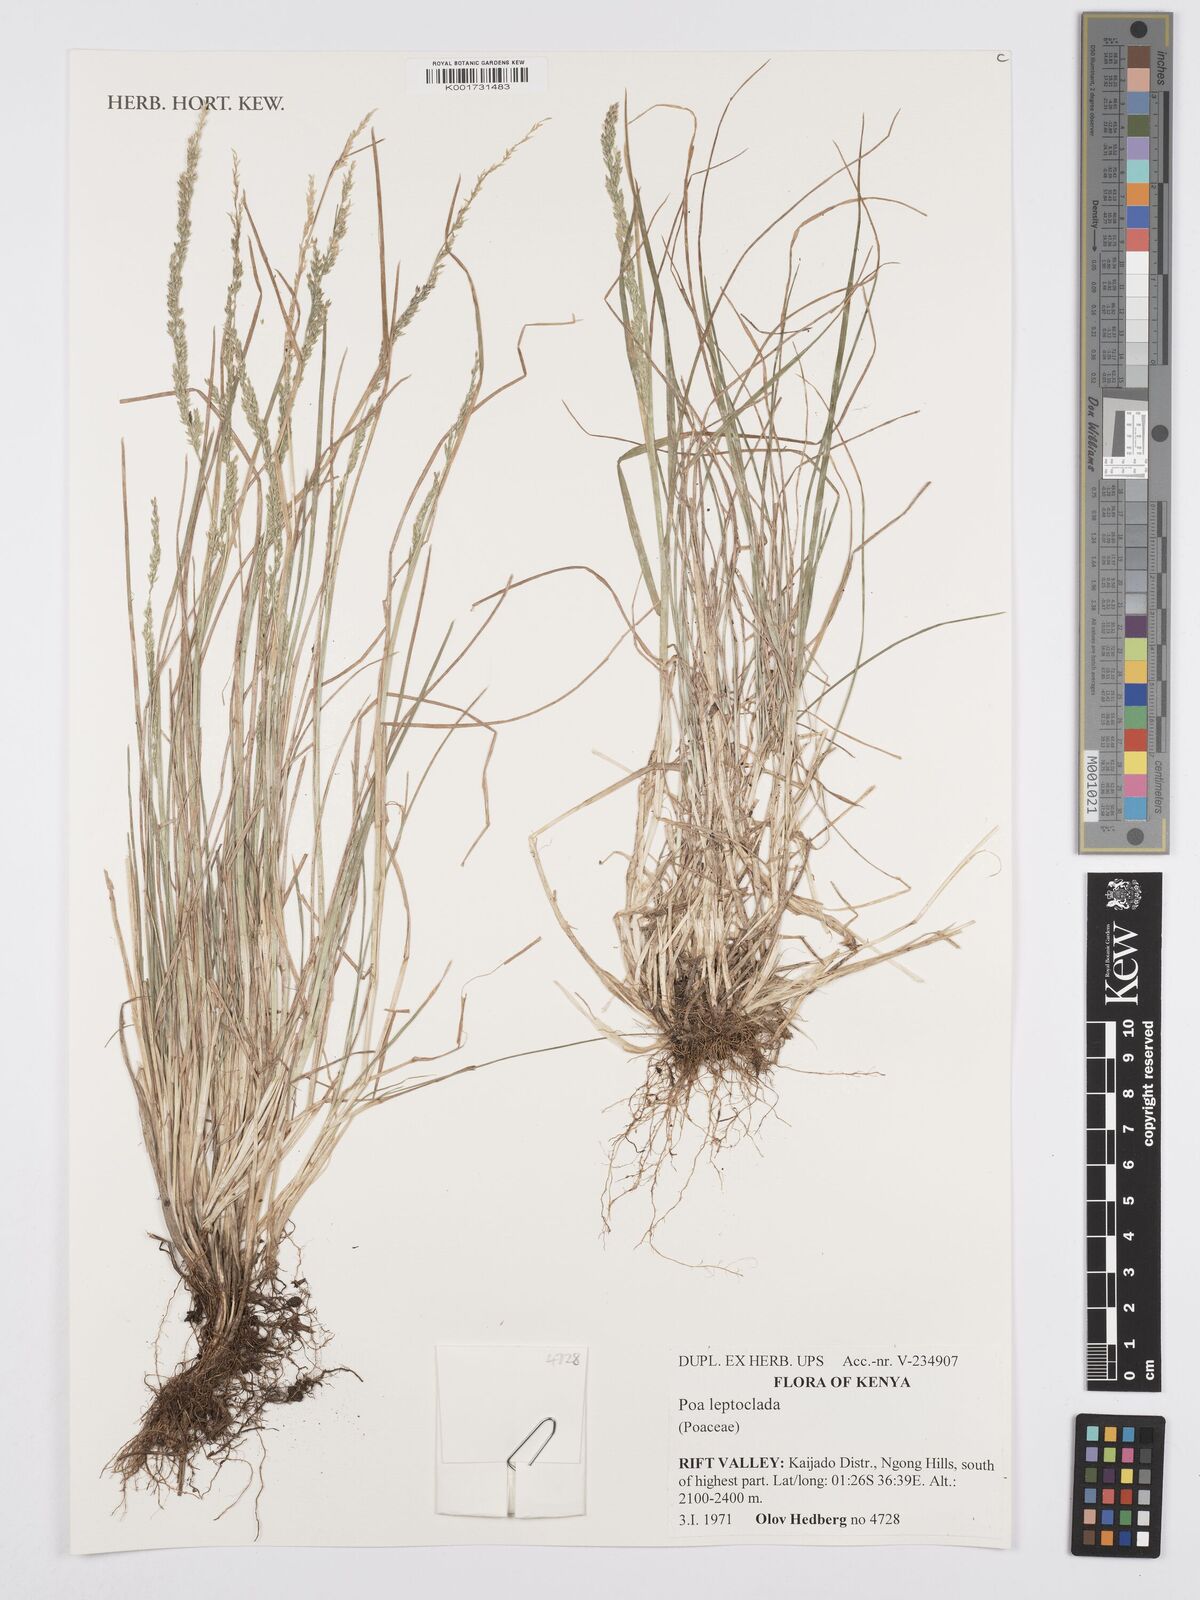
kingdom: Plantae
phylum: Tracheophyta
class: Liliopsida
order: Poales
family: Poaceae
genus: Poa
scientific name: Poa leptoclada
